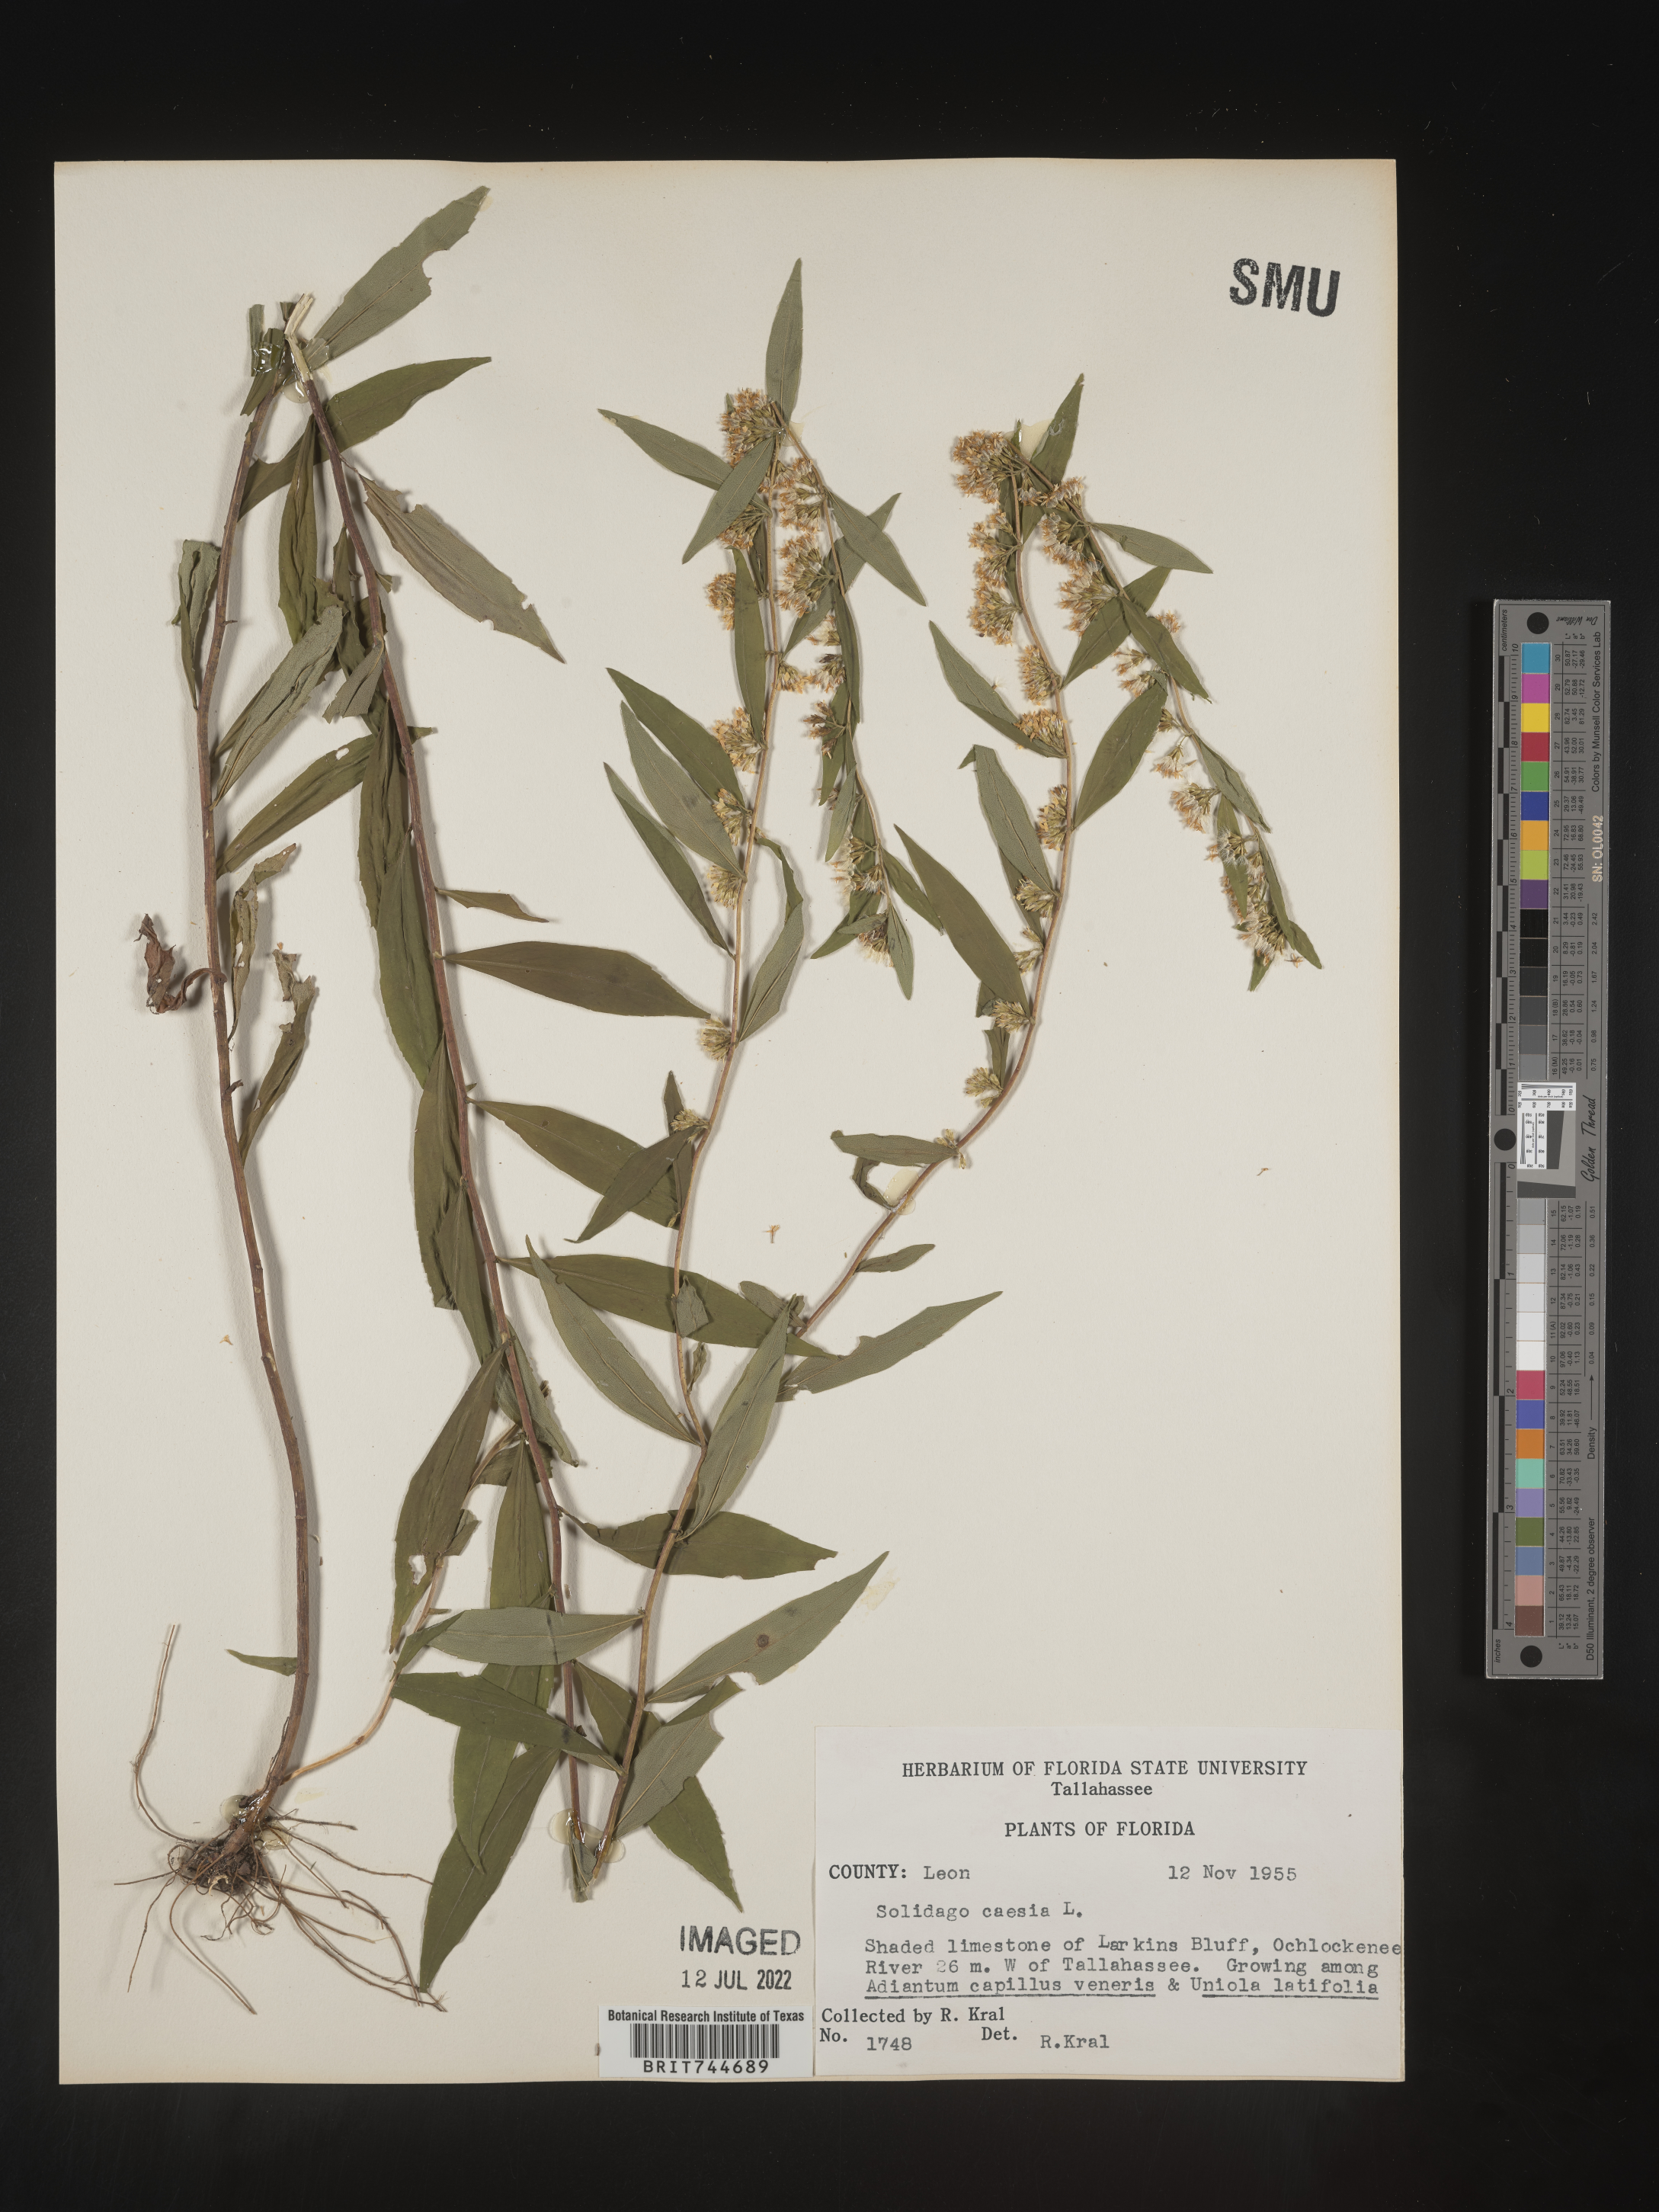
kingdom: Plantae
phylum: Tracheophyta
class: Magnoliopsida
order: Asterales
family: Asteraceae
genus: Solidago
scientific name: Solidago caesia
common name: Woodland goldenrod
